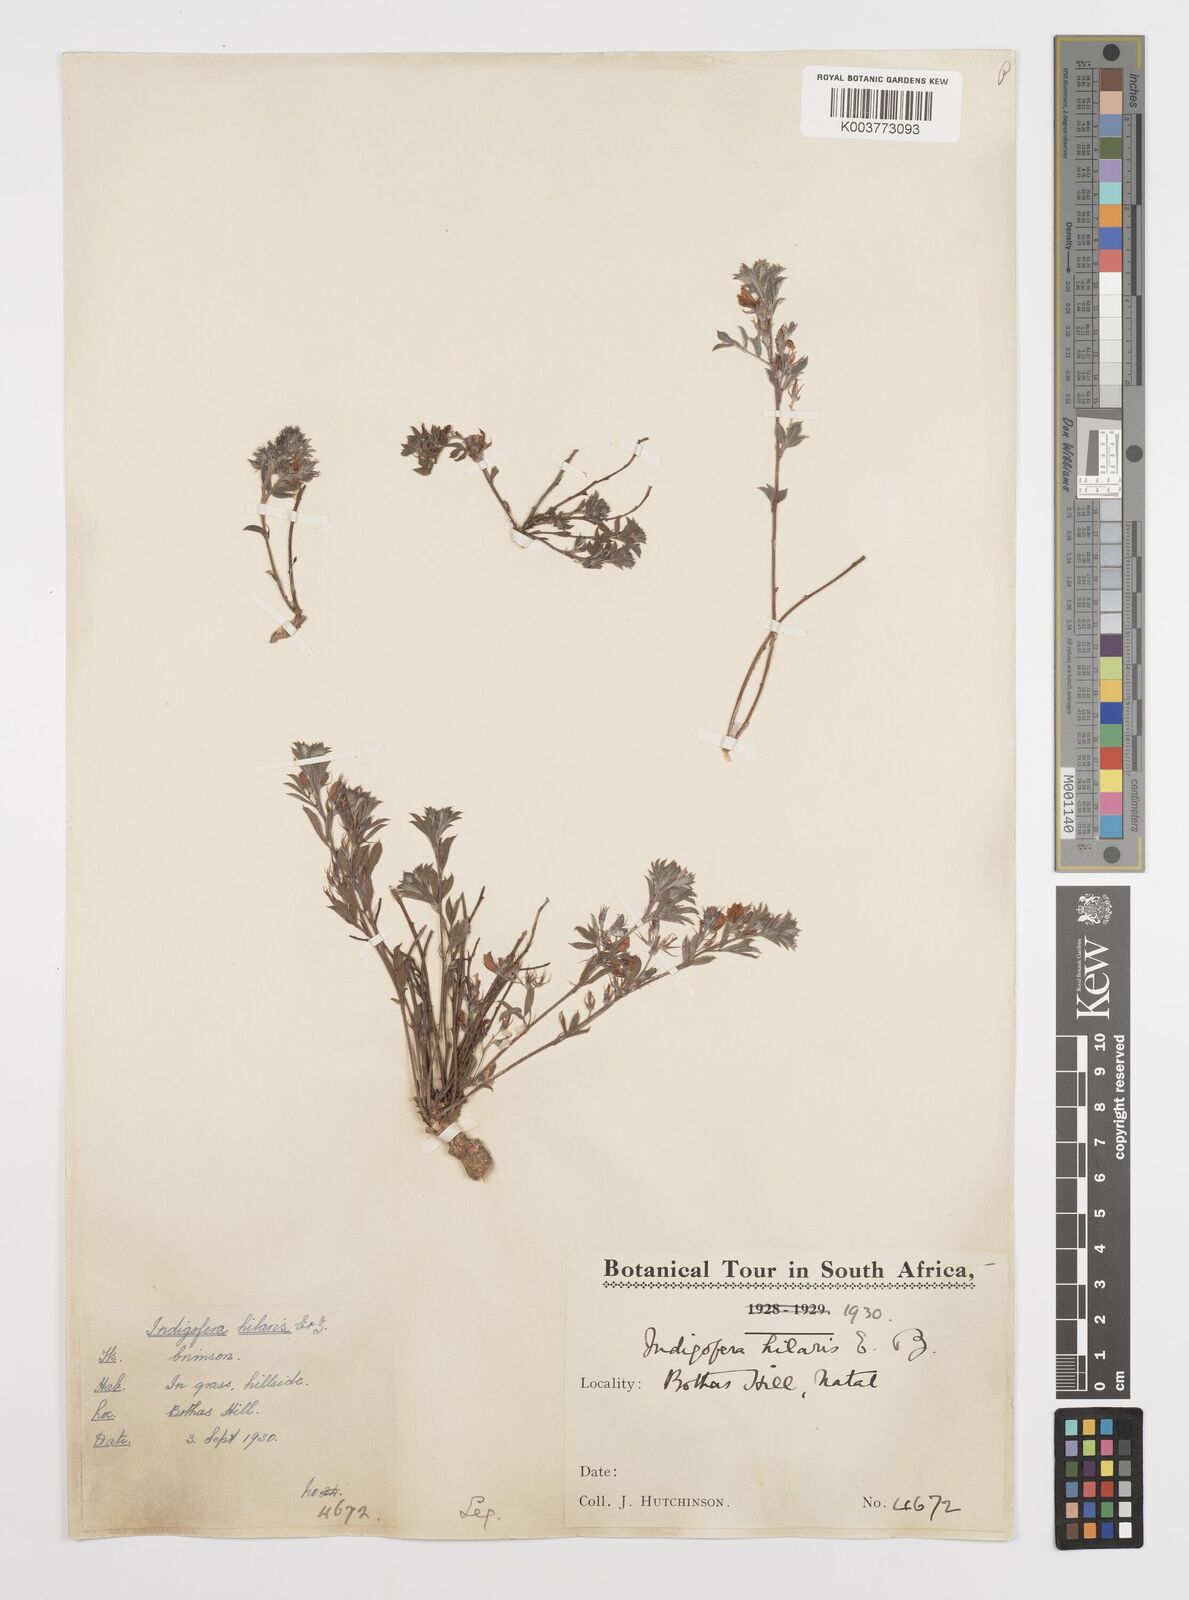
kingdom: Plantae
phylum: Tracheophyta
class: Magnoliopsida
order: Fabales
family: Fabaceae
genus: Indigofera
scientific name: Indigofera
